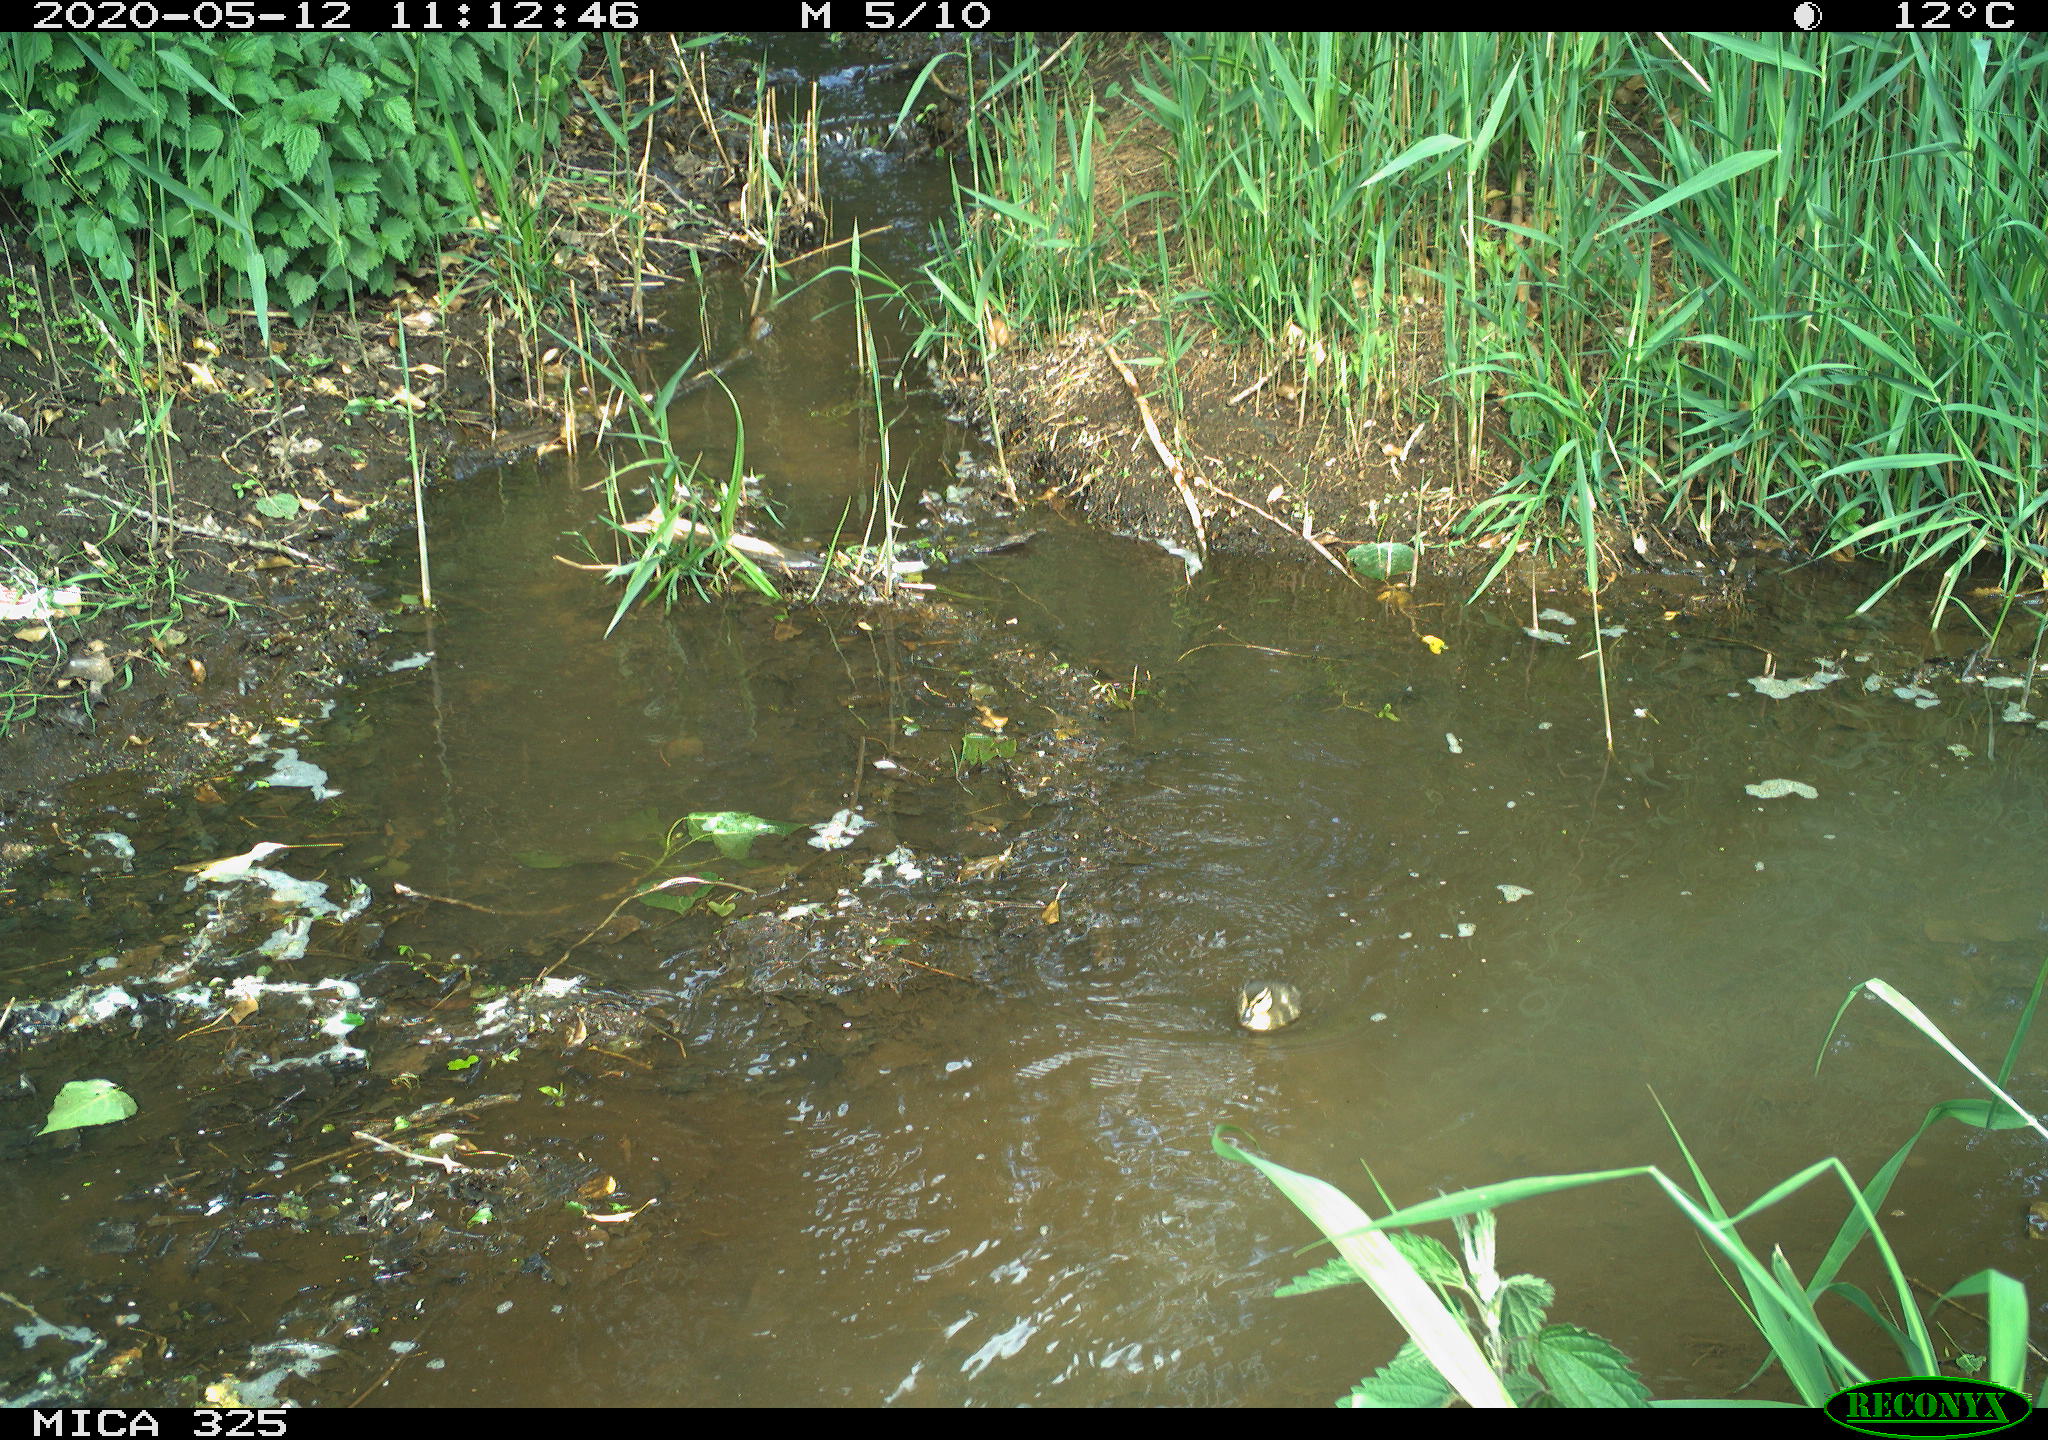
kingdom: Animalia
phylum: Chordata
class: Aves
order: Anseriformes
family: Anatidae
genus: Anas
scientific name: Anas platyrhynchos
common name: Mallard
